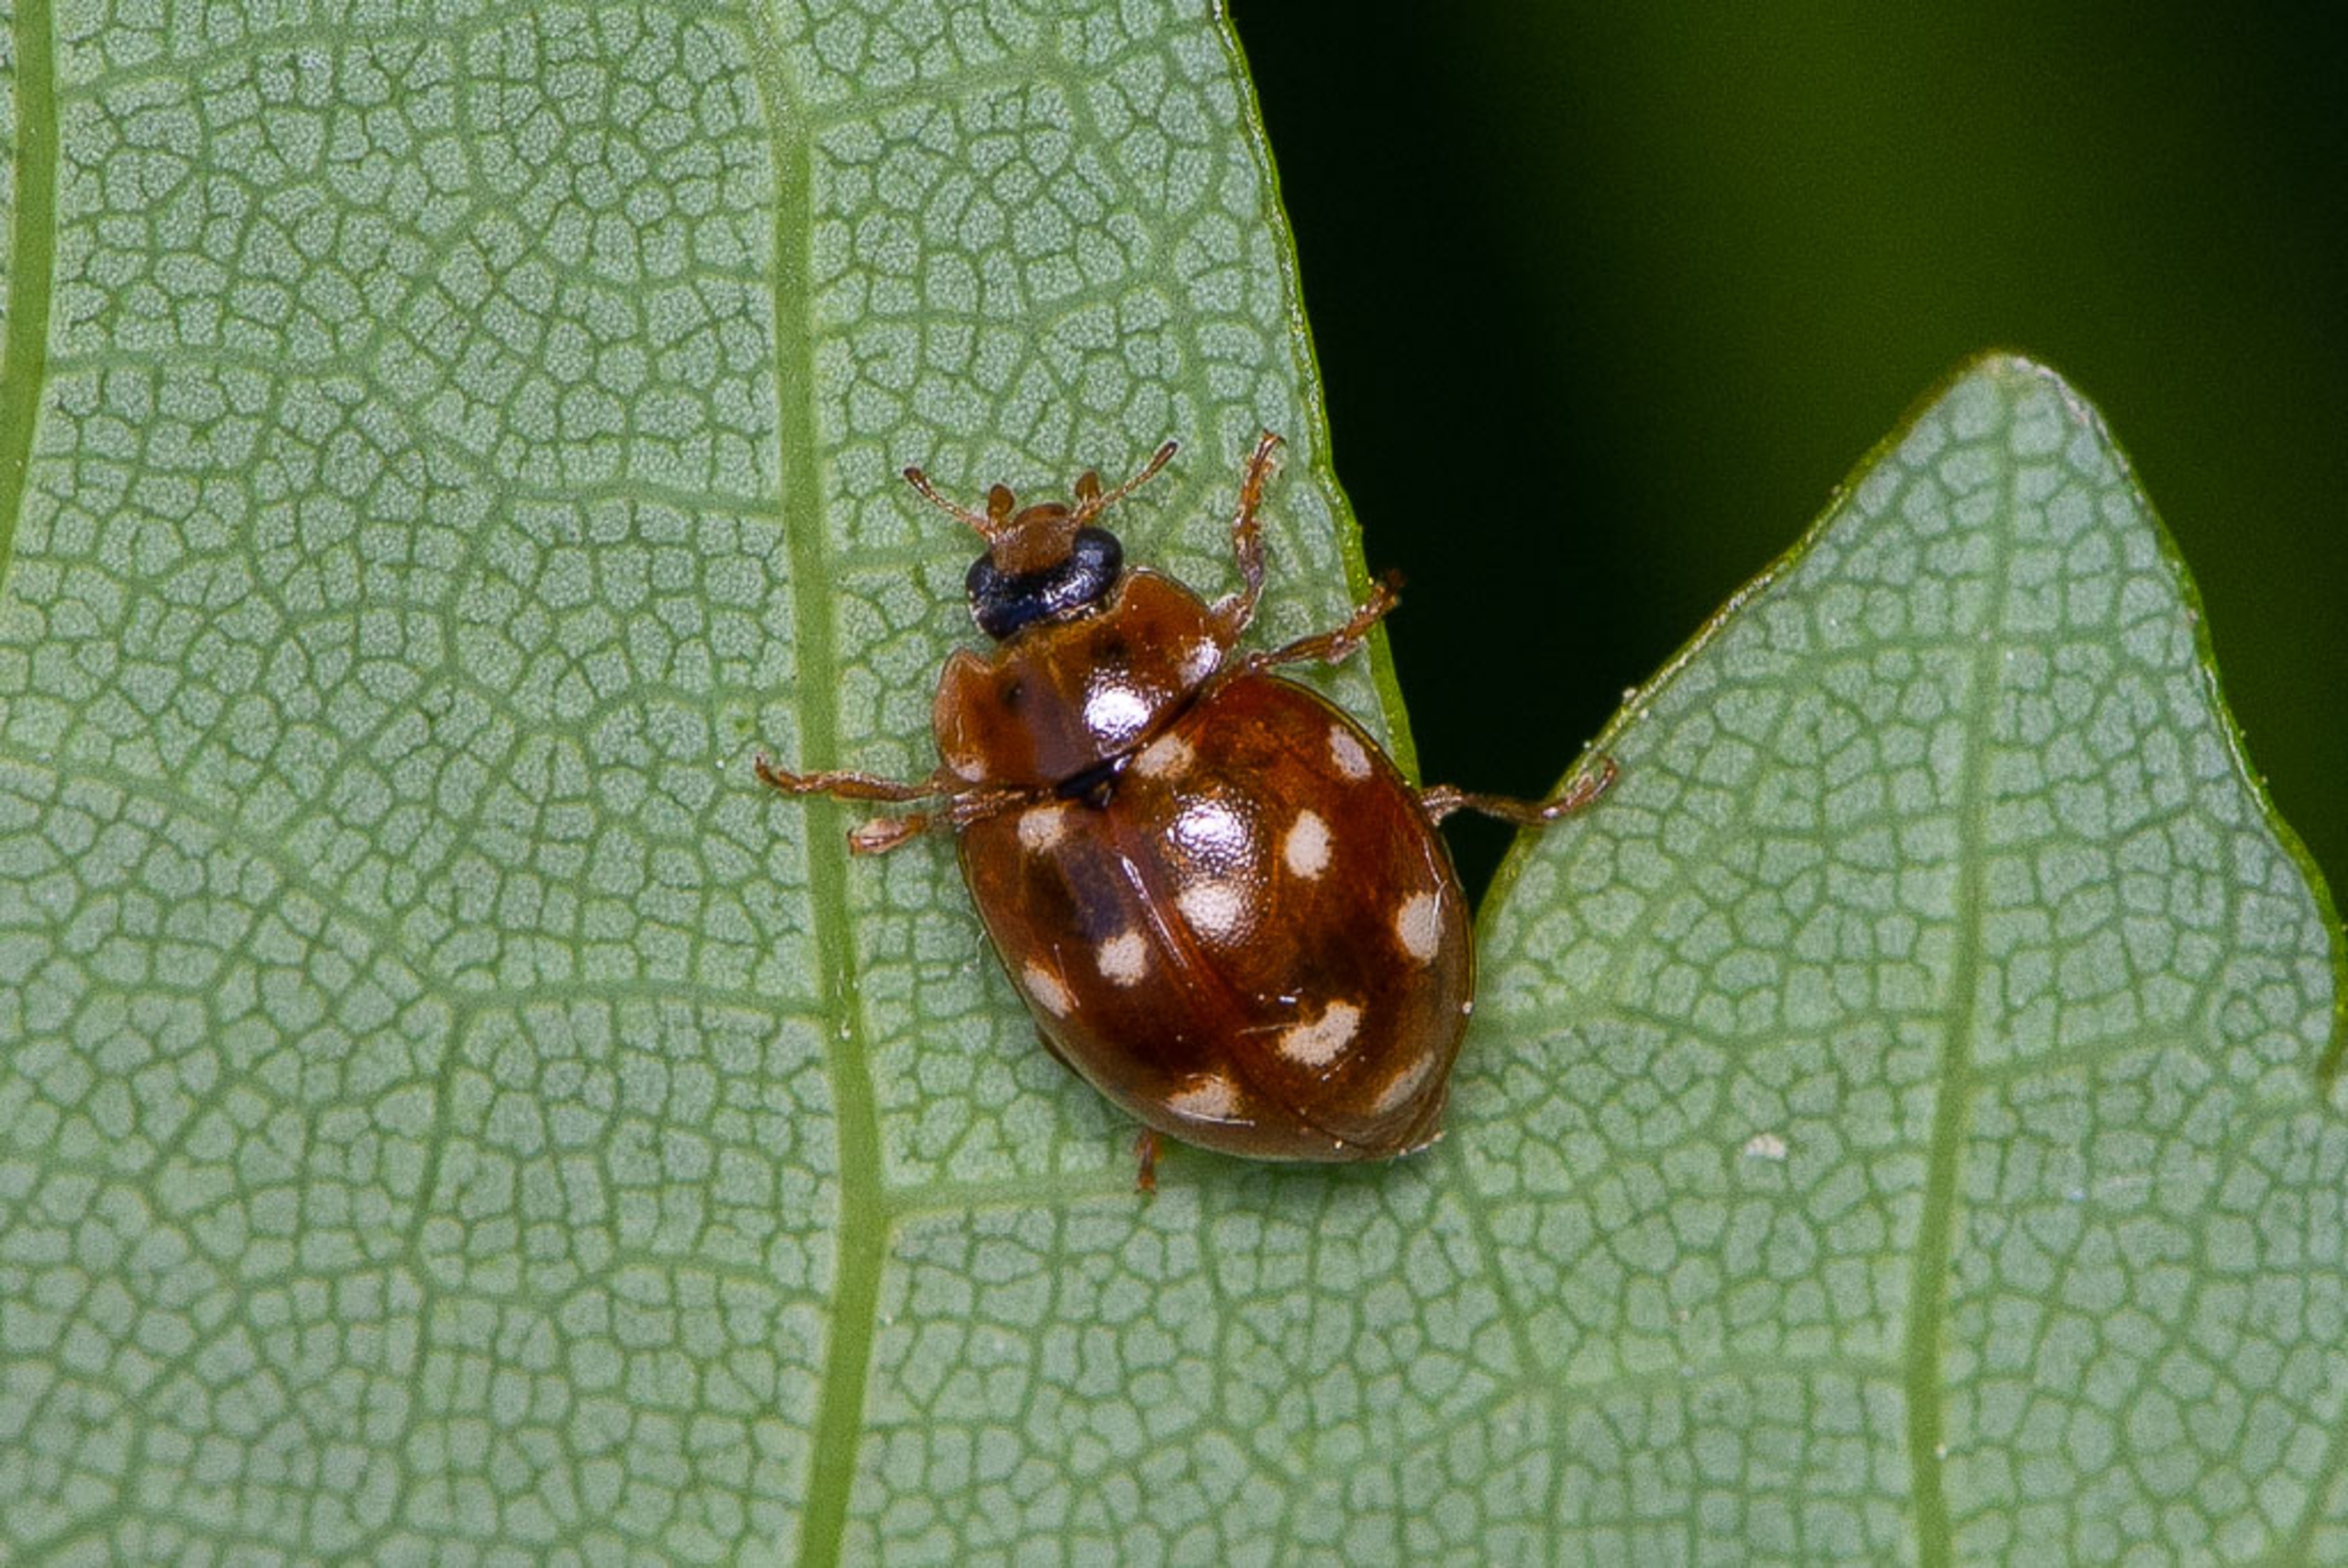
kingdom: Animalia
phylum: Arthropoda
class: Insecta
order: Coleoptera
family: Coccinellidae
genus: Calvia
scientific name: Calvia quatuordecimguttata
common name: Fjortenplettet mariehøne
